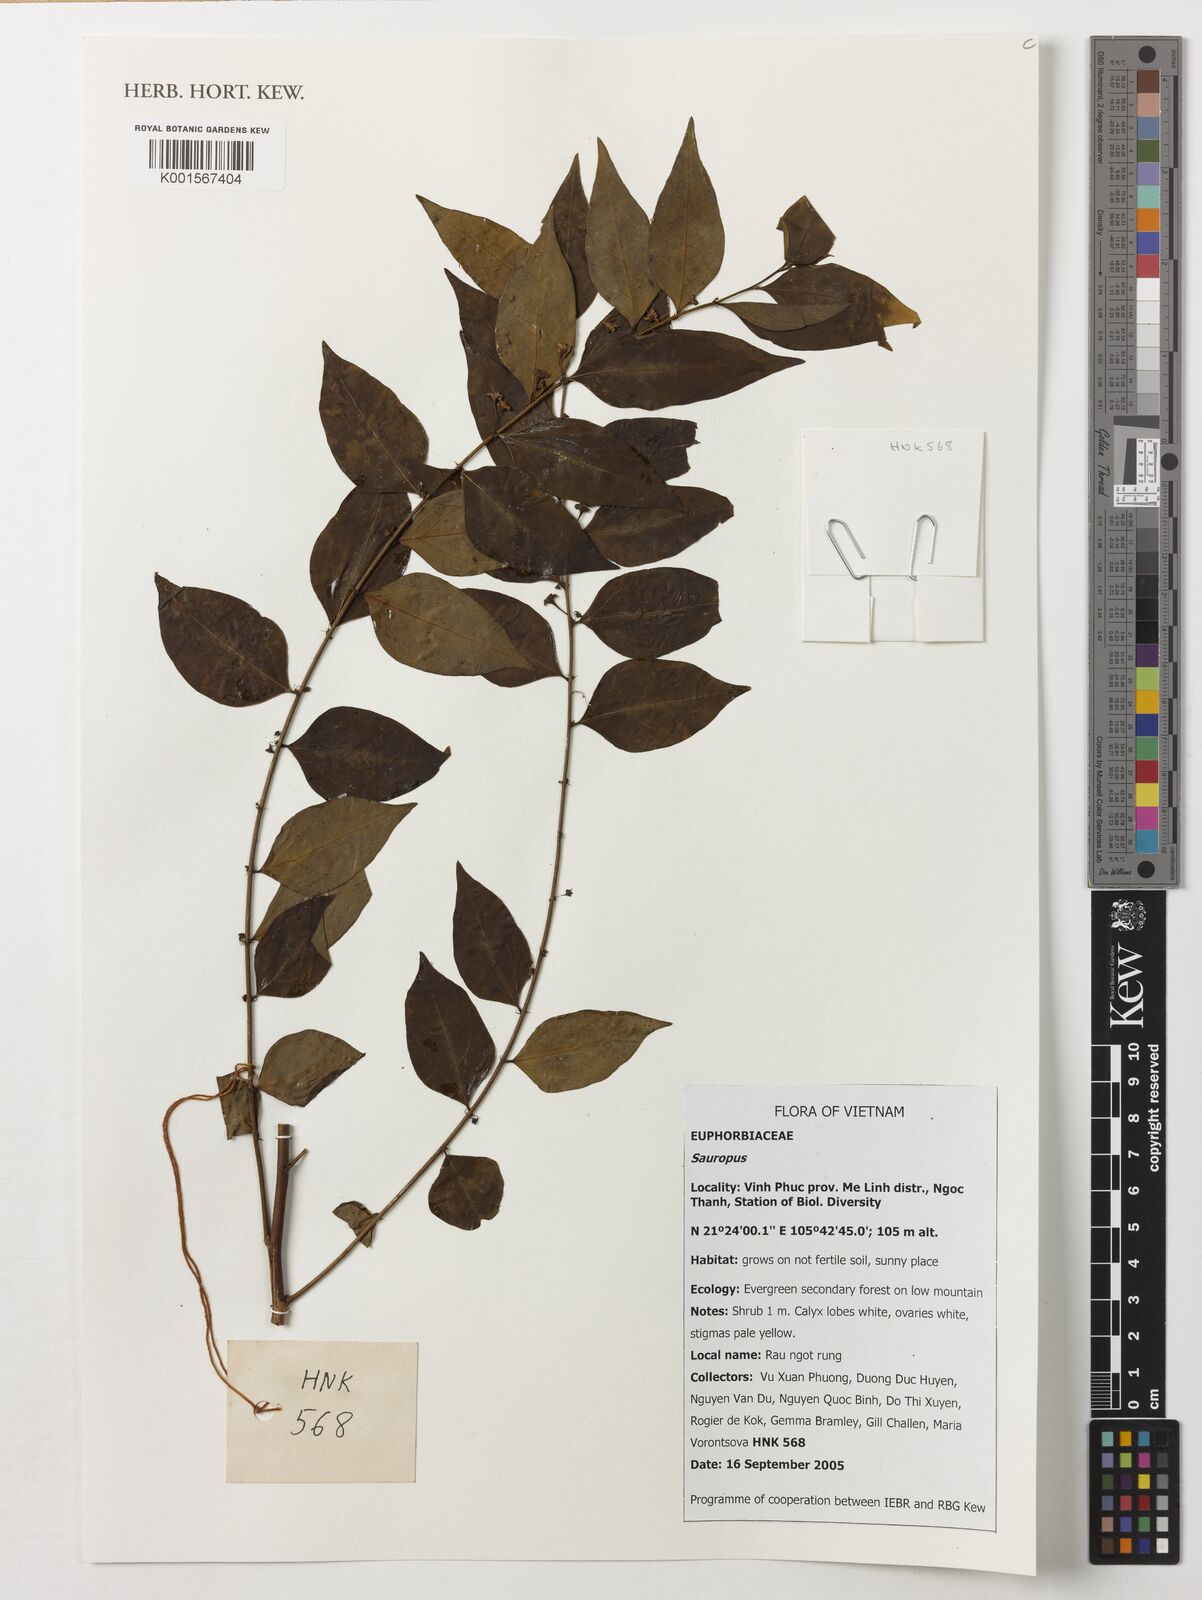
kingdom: Animalia
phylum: Chordata
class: Amphibia
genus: Sauropus
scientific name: Sauropus
